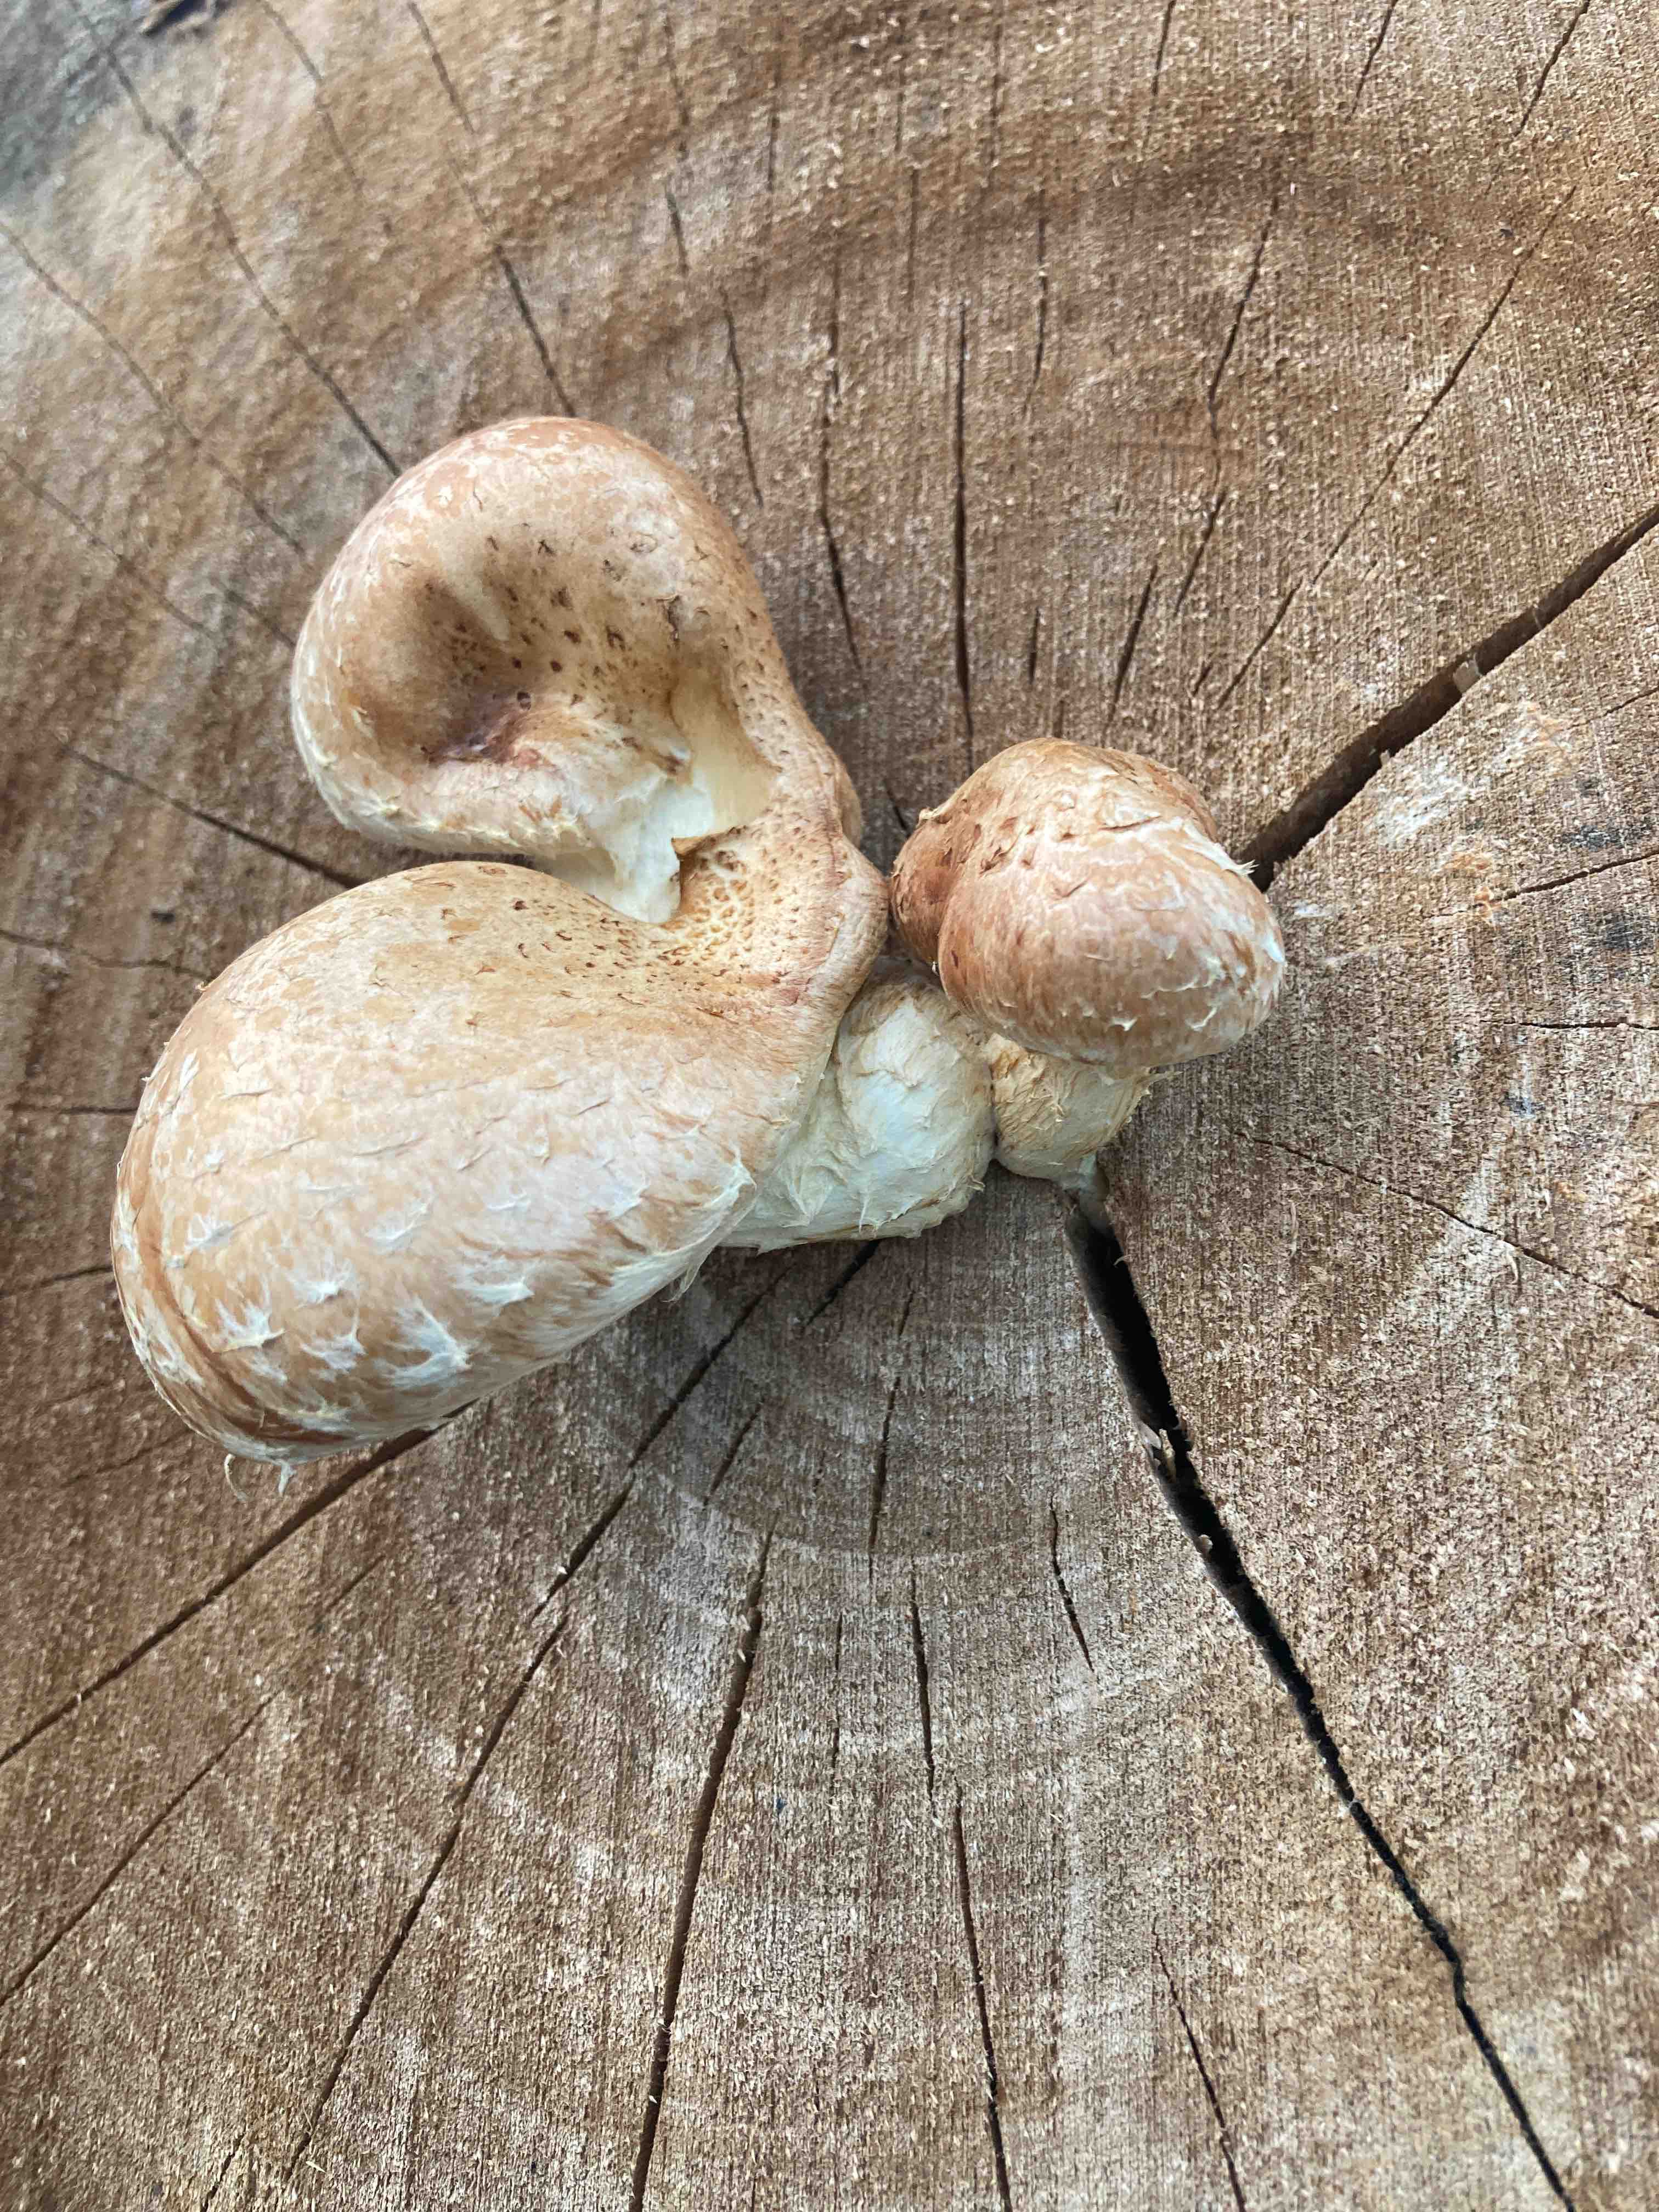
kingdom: Fungi
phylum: Basidiomycota
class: Agaricomycetes
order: Agaricales
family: Strophariaceae
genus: Pholiota
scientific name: Pholiota populnea
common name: poppel-kæmpeskælhat
